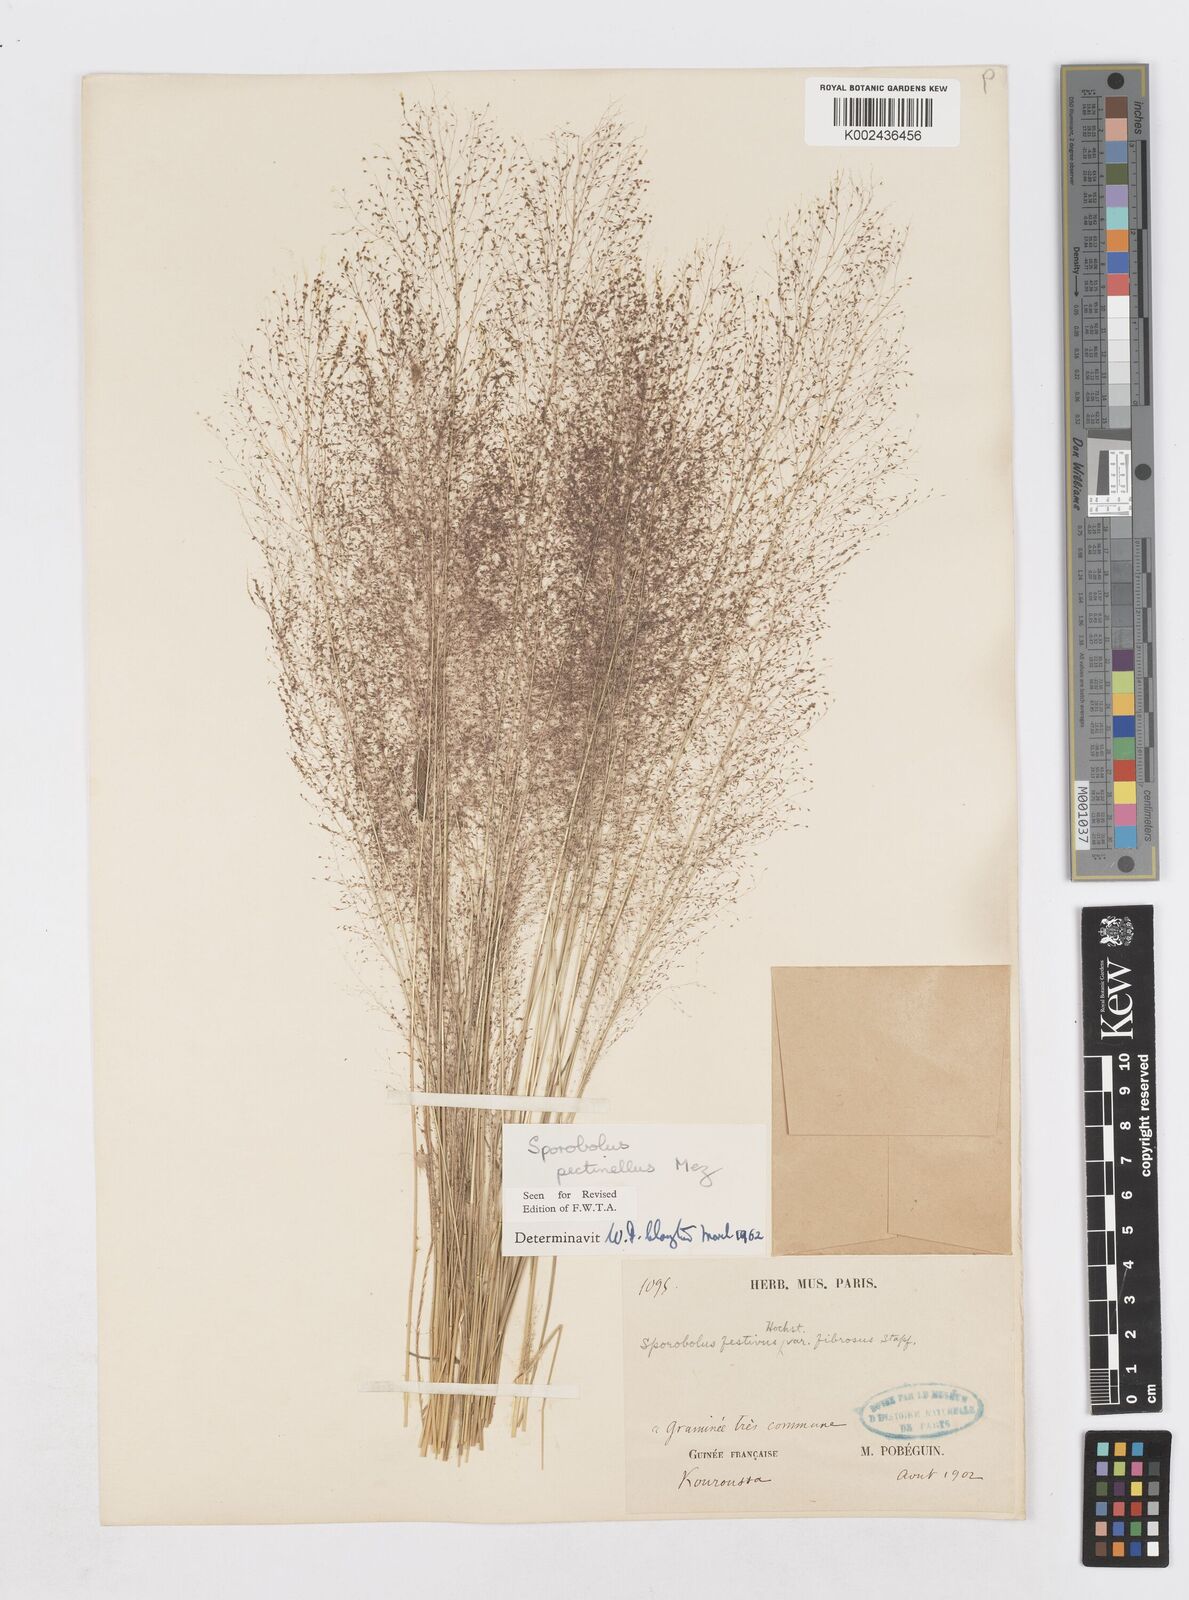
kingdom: Plantae
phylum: Tracheophyta
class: Liliopsida
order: Poales
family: Poaceae
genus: Sporobolus
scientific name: Sporobolus pectinellus
